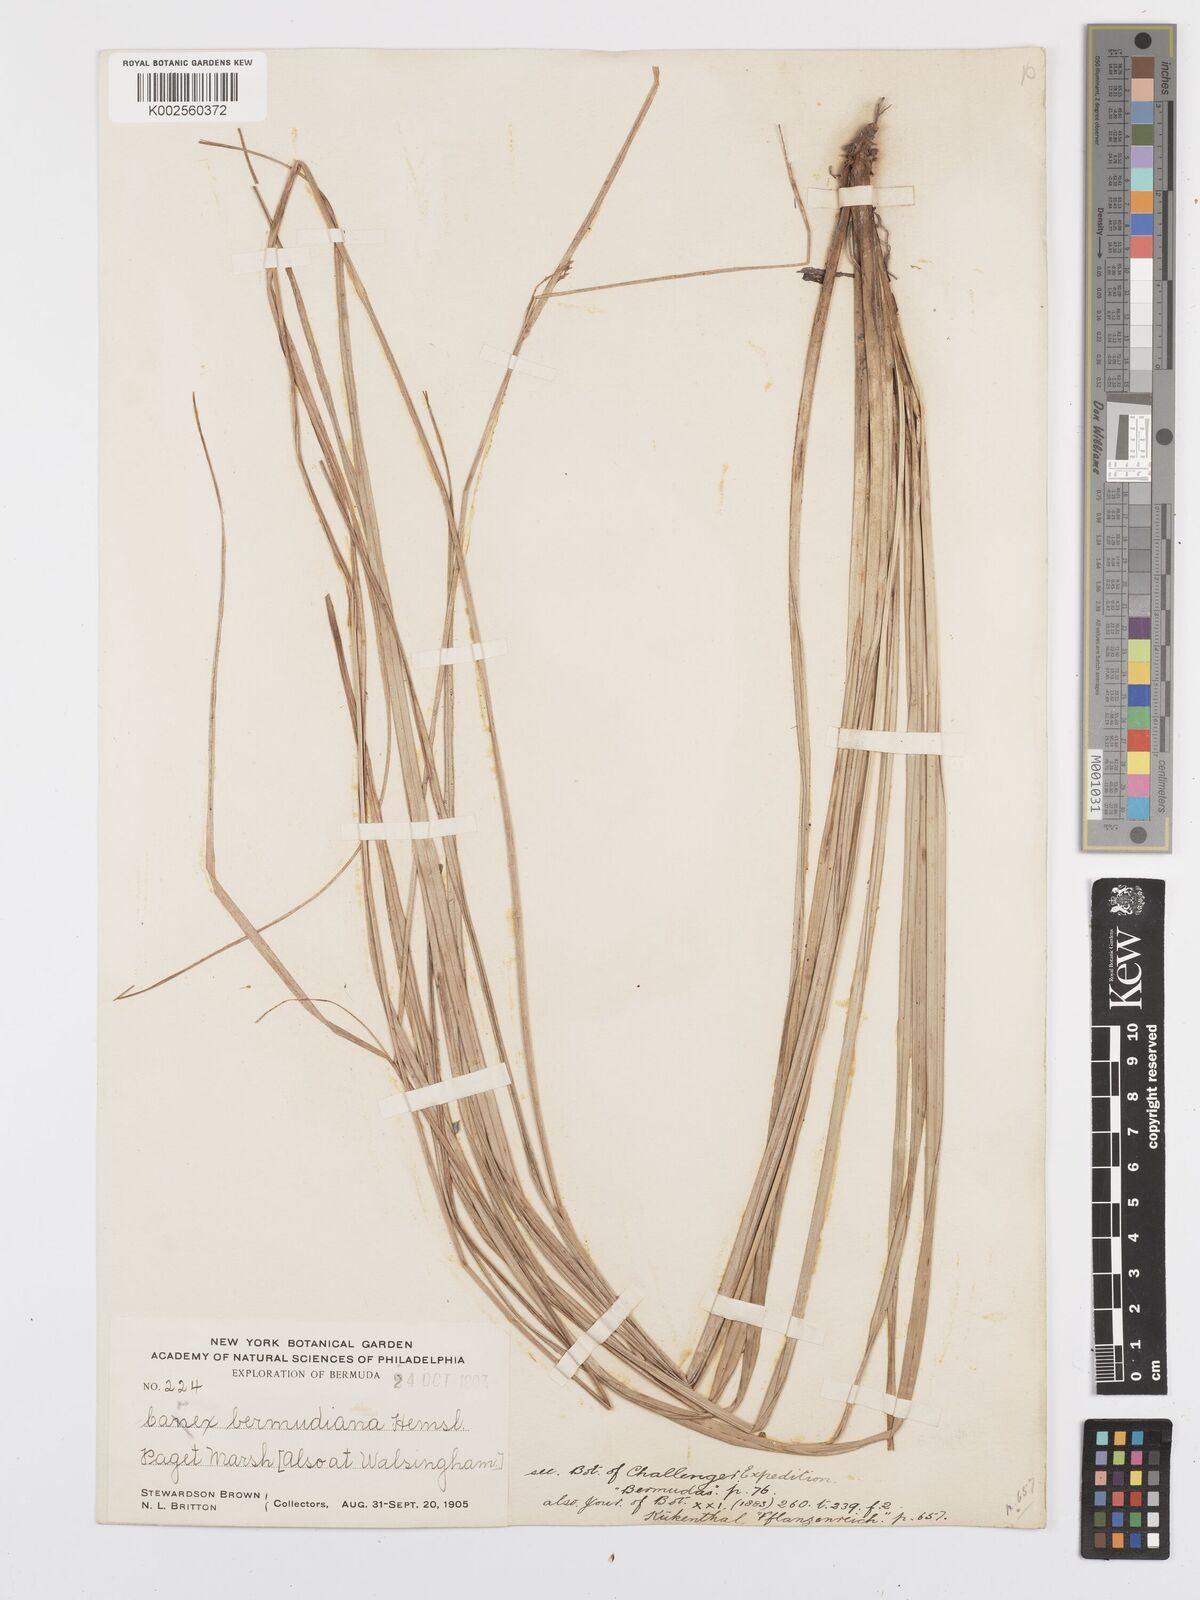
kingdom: Plantae
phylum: Tracheophyta
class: Liliopsida
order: Poales
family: Cyperaceae
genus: Carex
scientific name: Carex bermudiana
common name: Bermuda sedge
